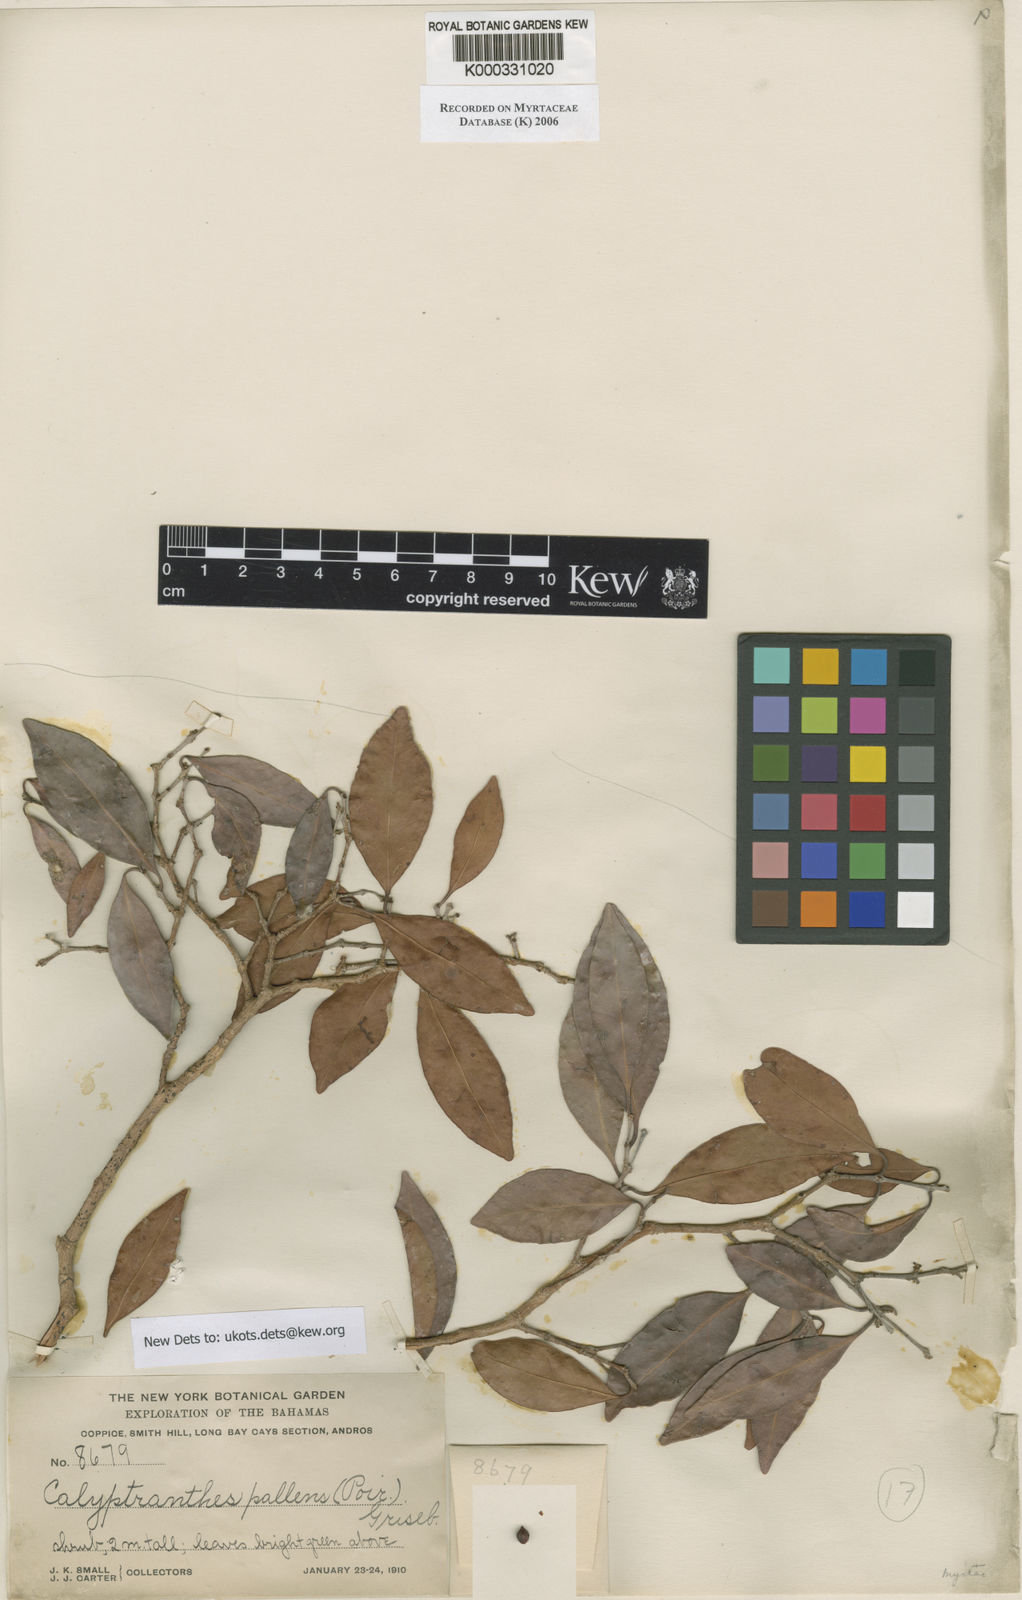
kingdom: Plantae
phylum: Tracheophyta
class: Magnoliopsida
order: Myrtales
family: Myrtaceae
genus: Myrcia
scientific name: Myrcia neopallens
